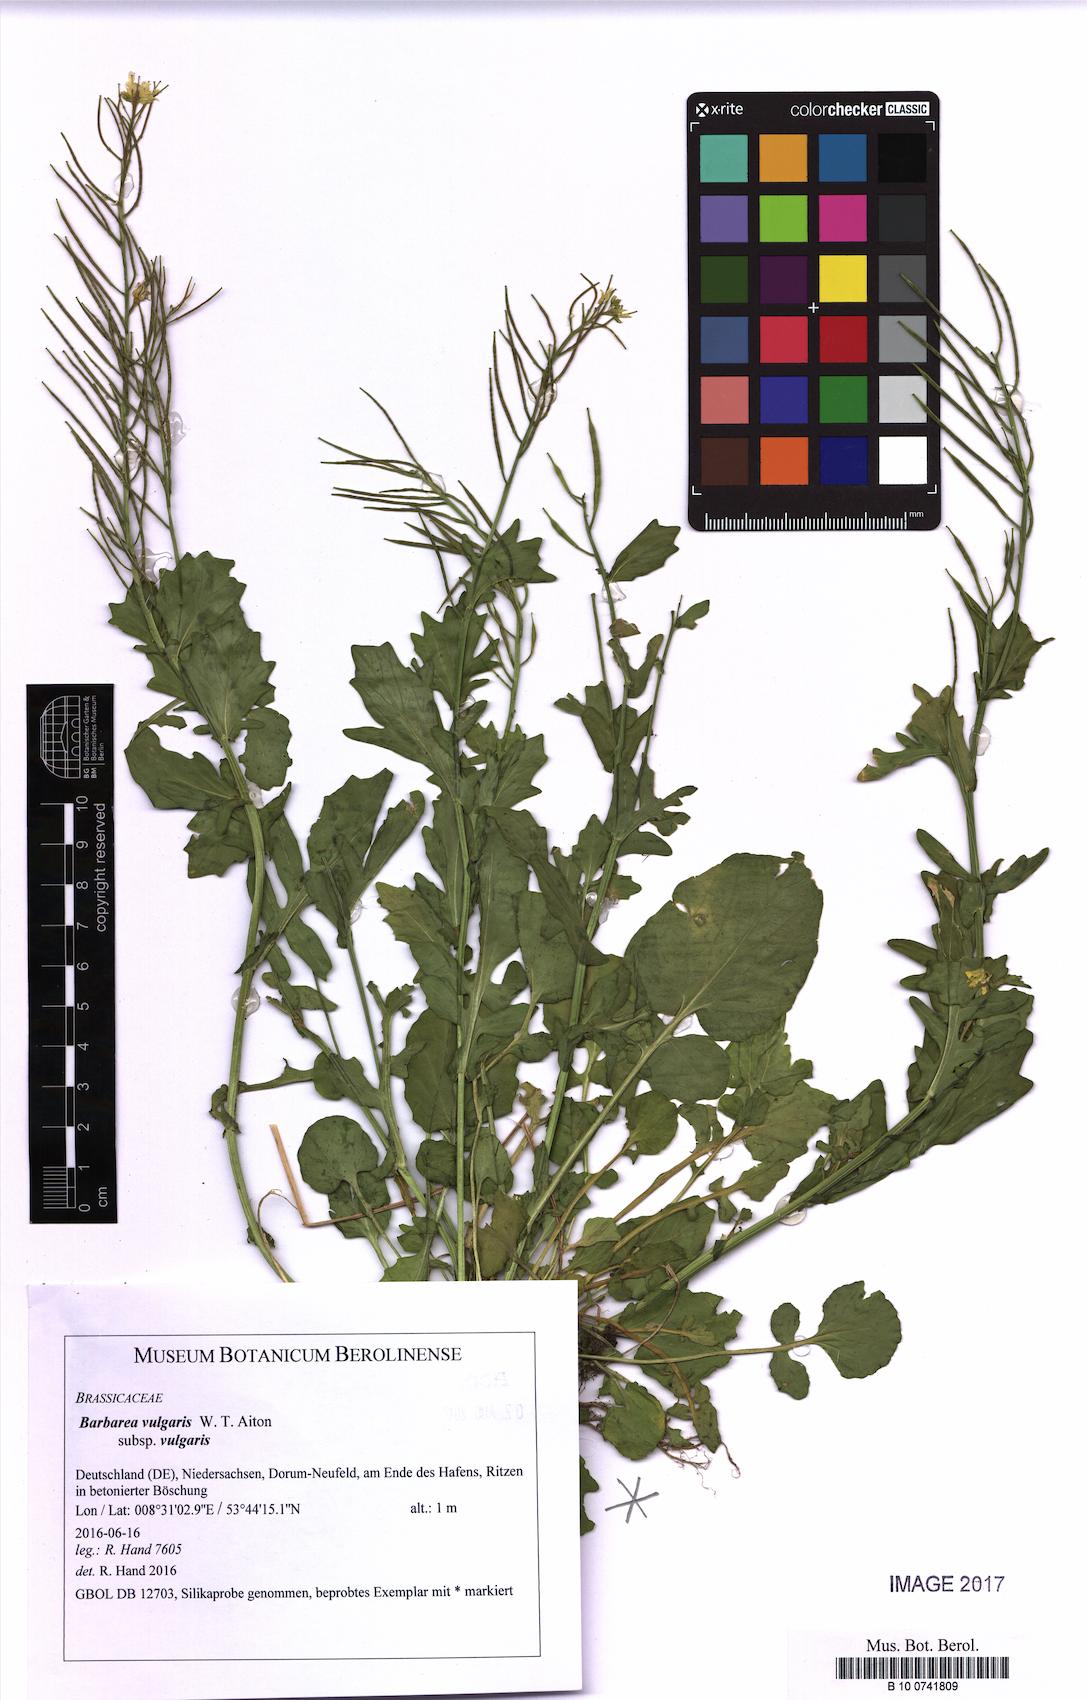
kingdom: Plantae
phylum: Tracheophyta
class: Magnoliopsida
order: Brassicales
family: Brassicaceae
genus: Barbarea
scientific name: Barbarea vulgaris
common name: Cressy-greens
